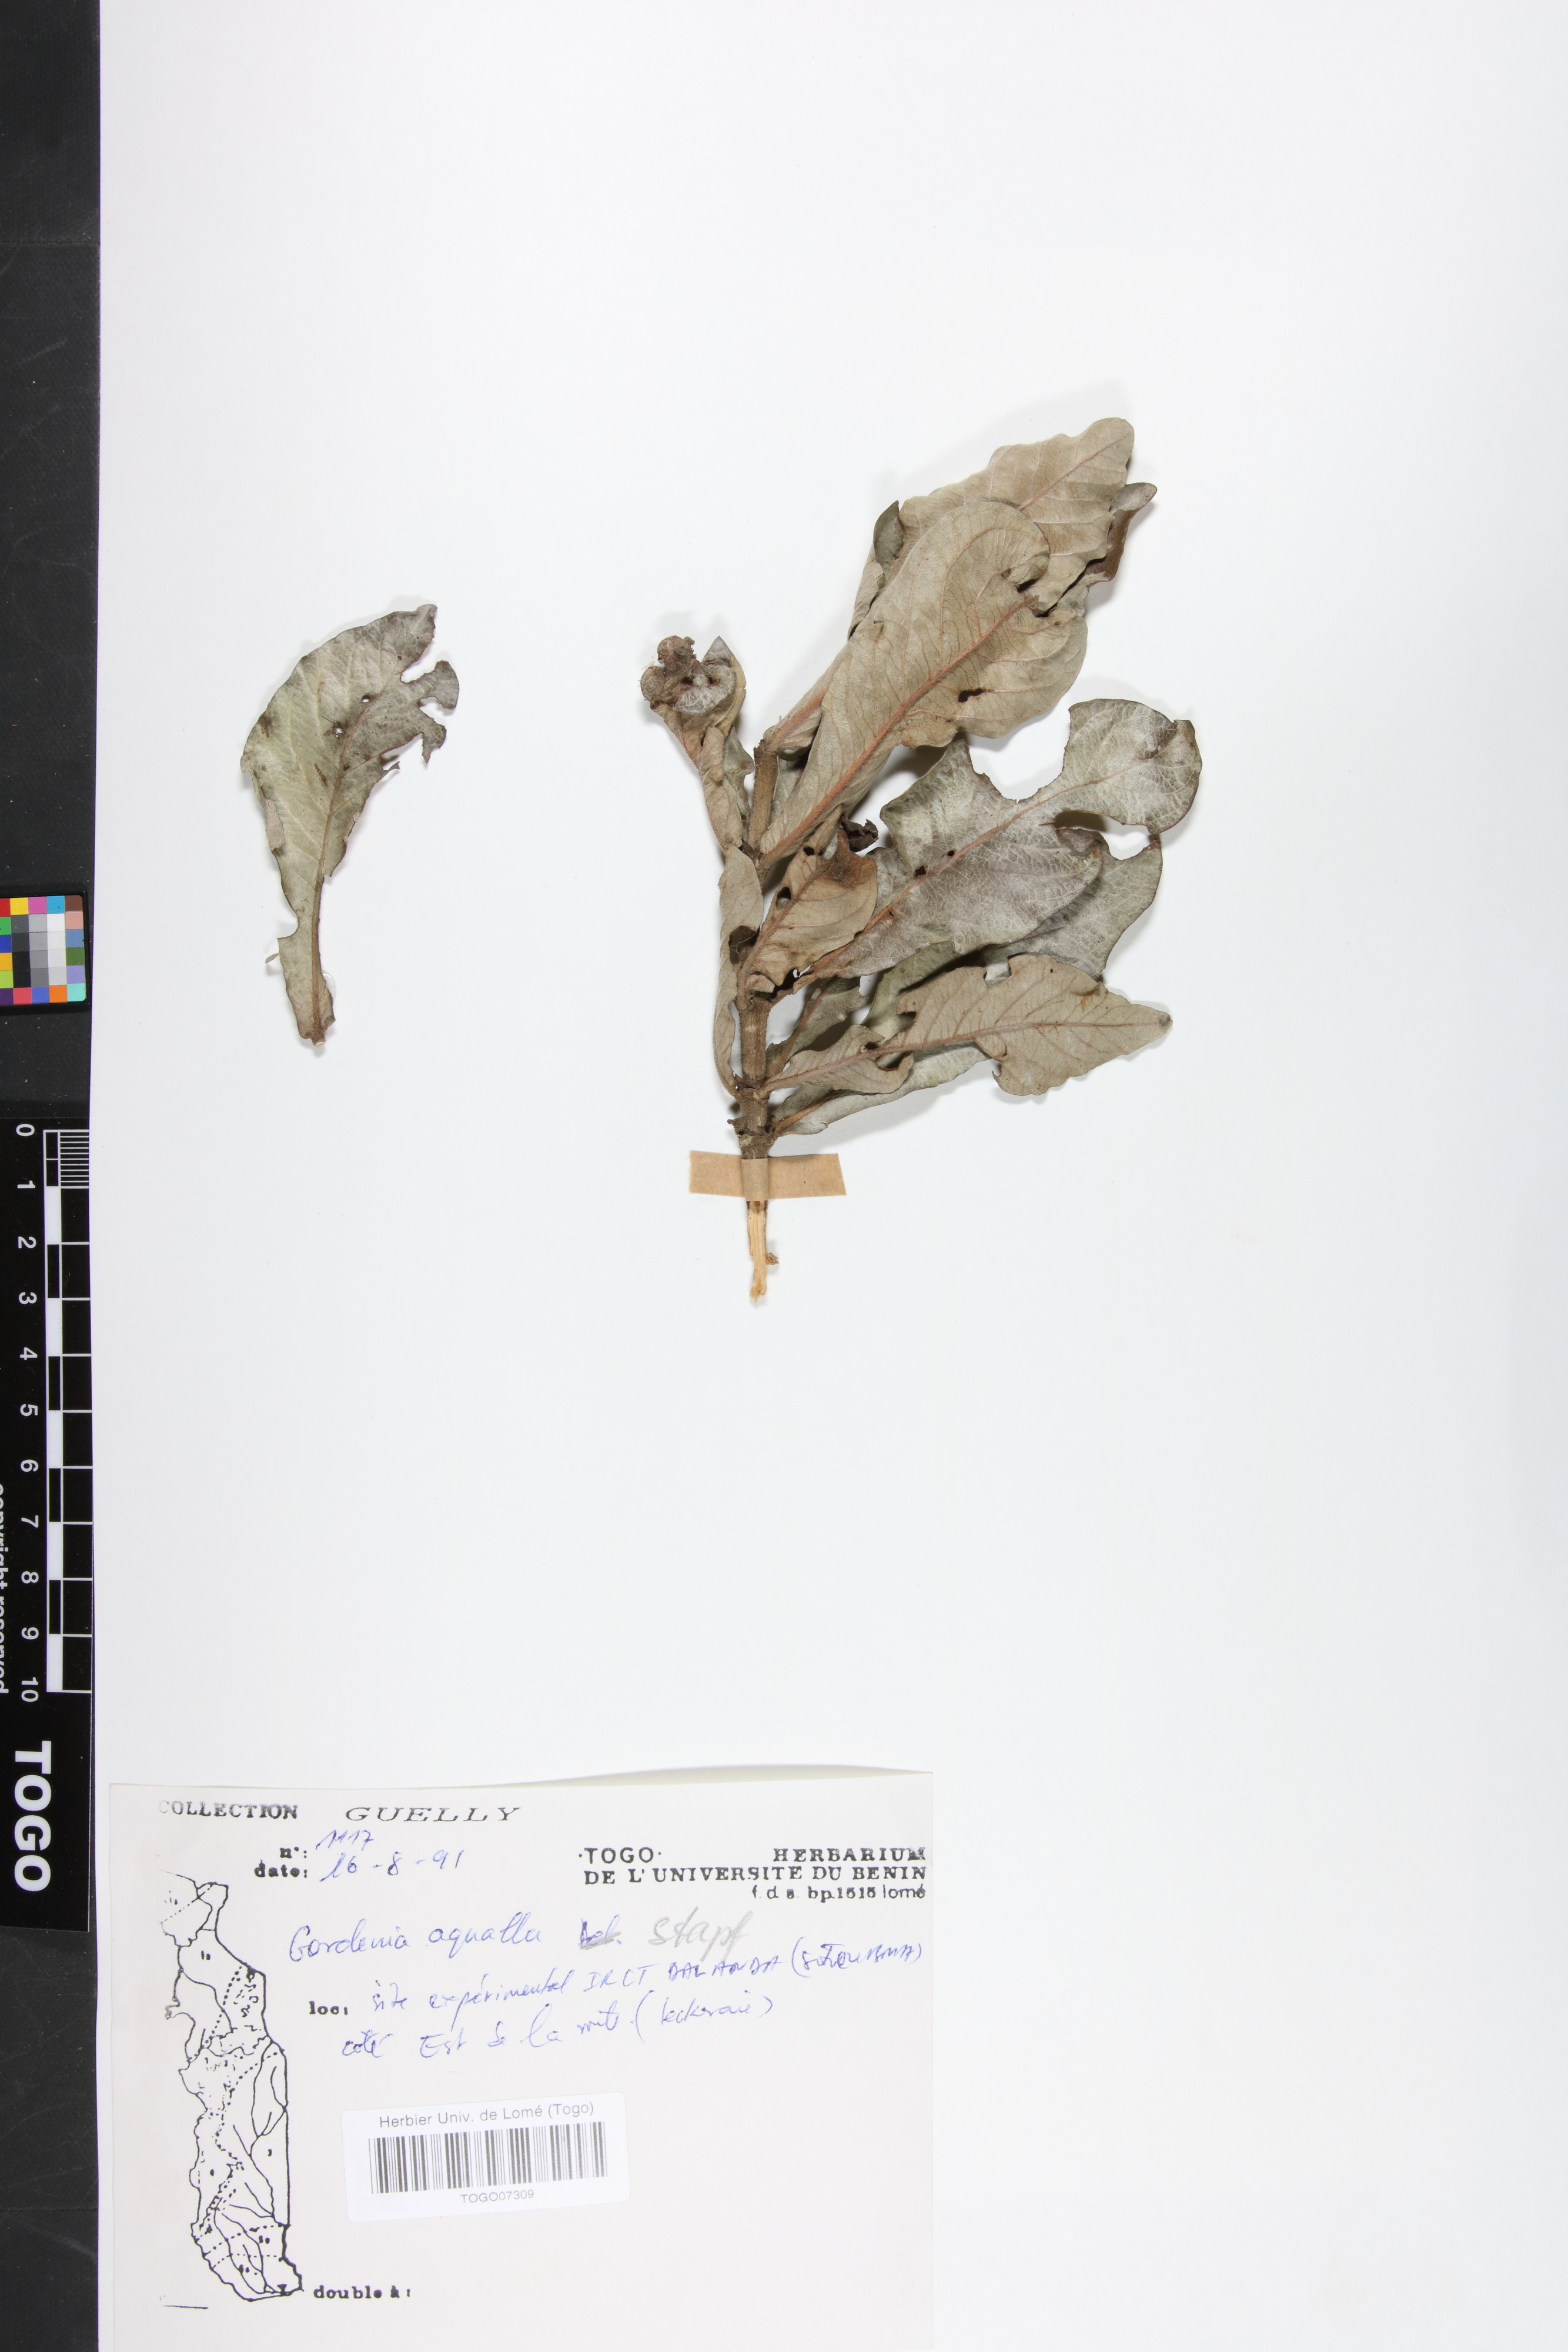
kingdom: Plantae
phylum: Tracheophyta
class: Magnoliopsida
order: Gentianales
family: Rubiaceae
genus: Gardenia
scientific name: Gardenia aqualla
